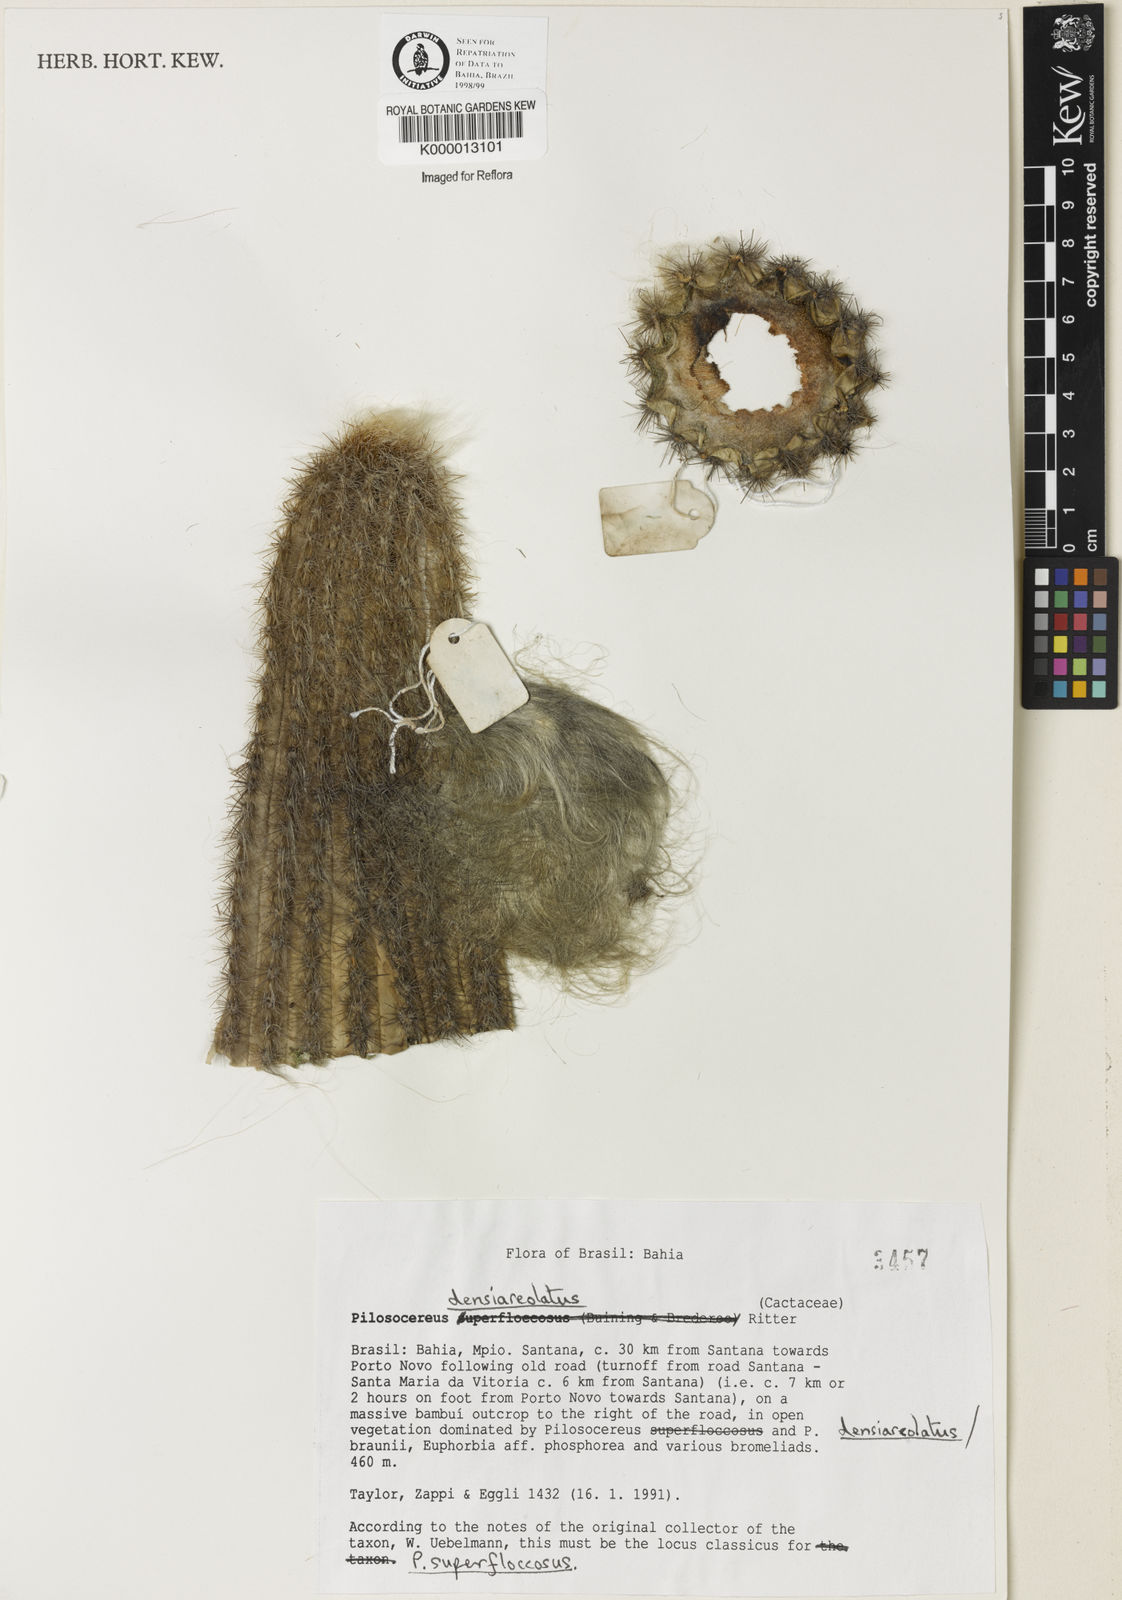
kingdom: Plantae
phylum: Tracheophyta
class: Magnoliopsida
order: Caryophyllales
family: Cactaceae
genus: Pilosocereus
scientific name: Pilosocereus densiareolatus
